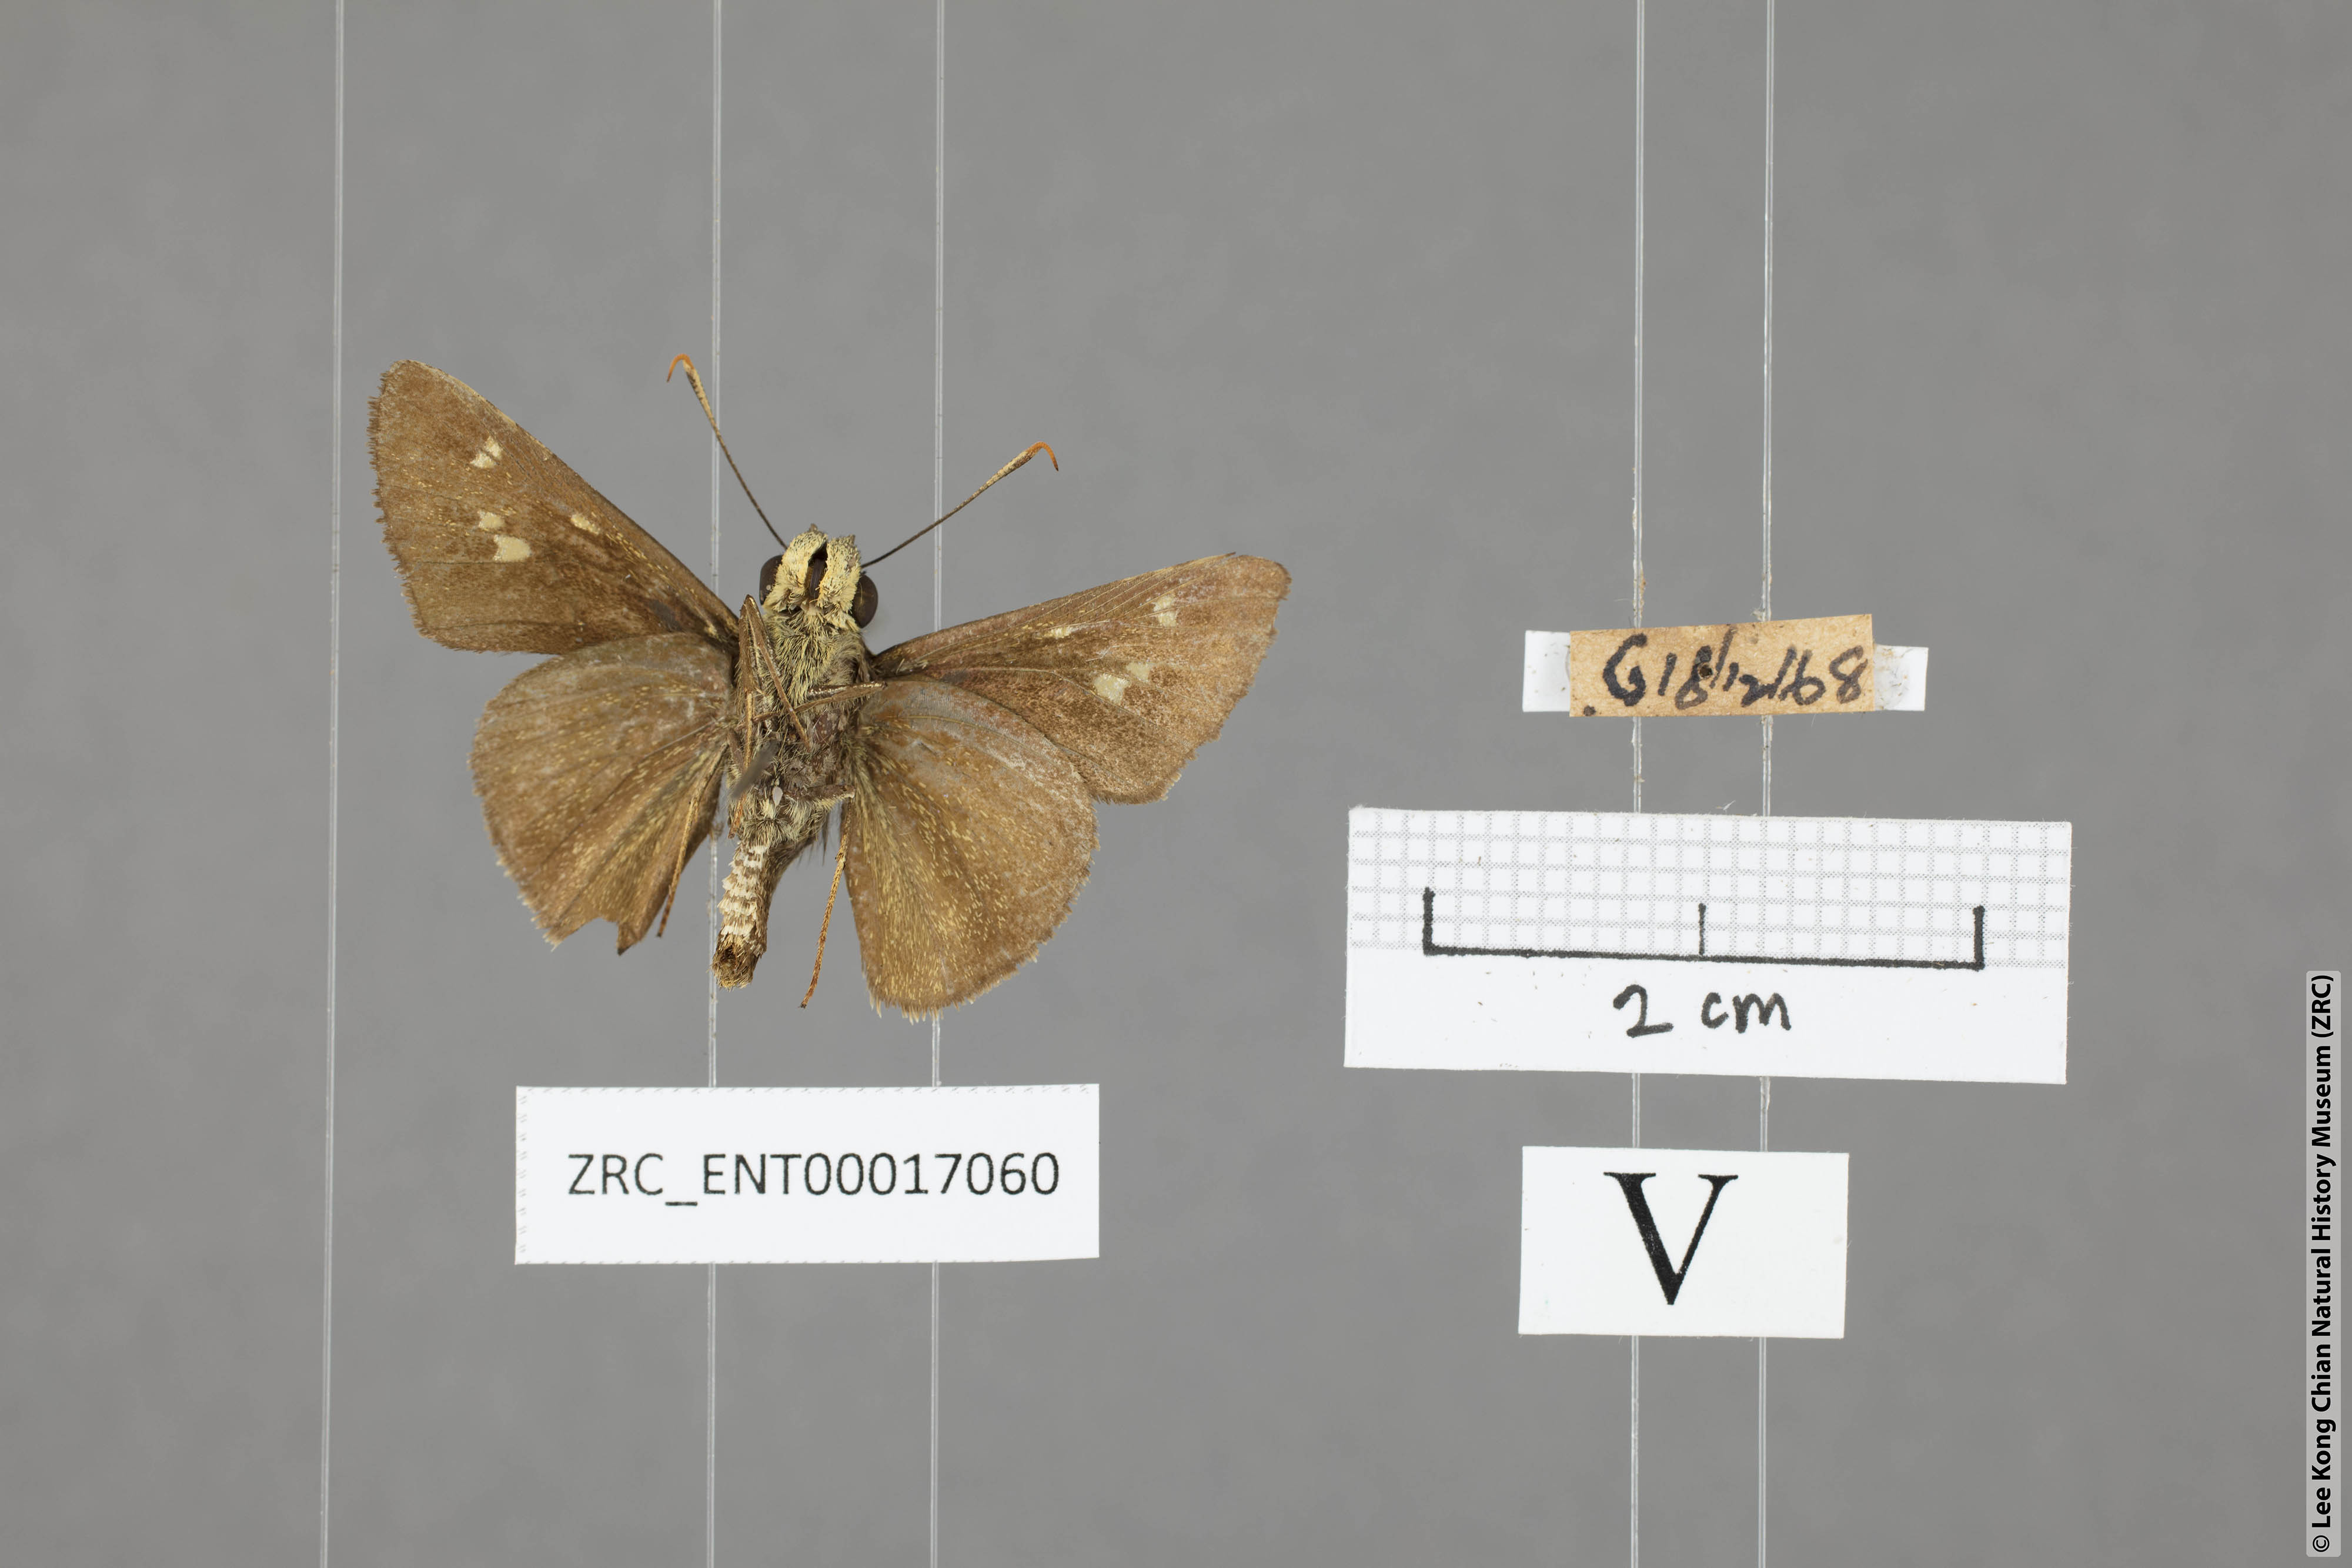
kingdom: Animalia
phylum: Arthropoda
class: Insecta
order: Lepidoptera
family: Hesperiidae
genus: Halpe
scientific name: Halpe sikkima
